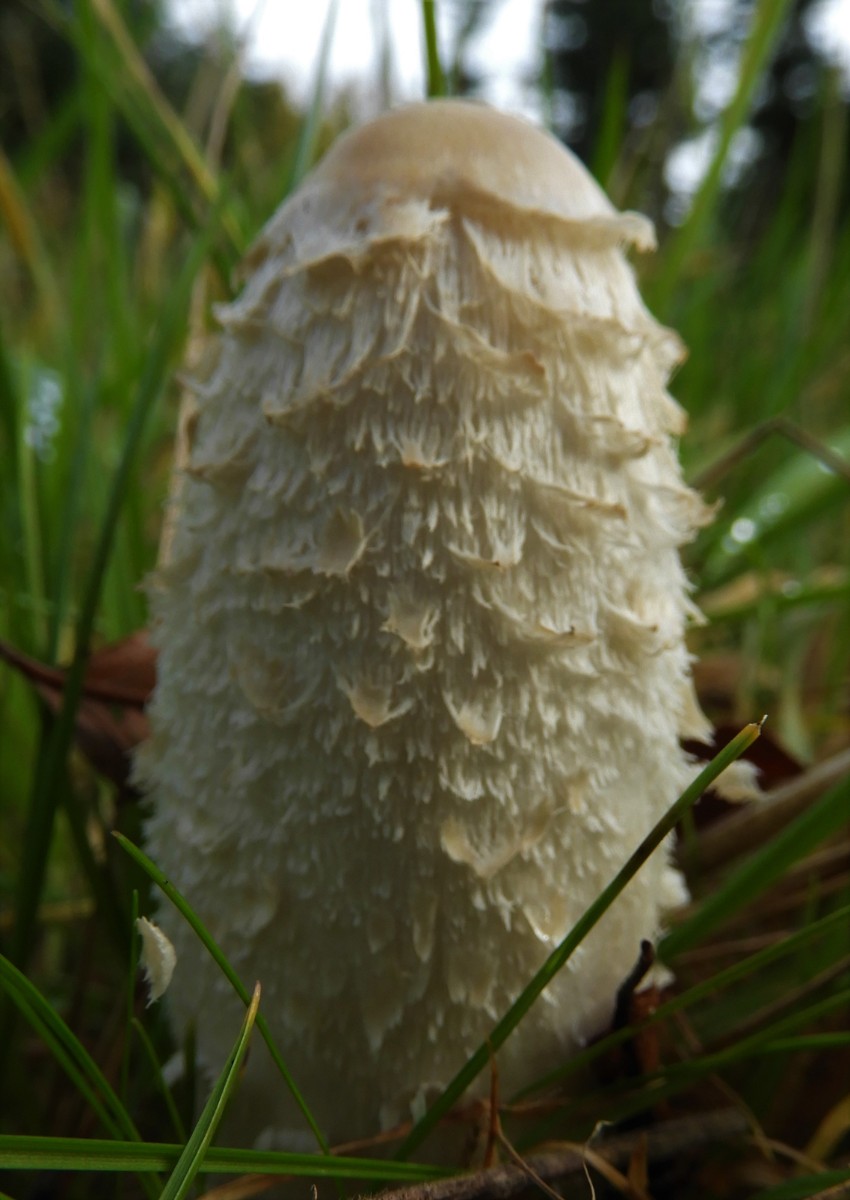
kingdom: Fungi
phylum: Basidiomycota
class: Agaricomycetes
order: Agaricales
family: Agaricaceae
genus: Coprinus
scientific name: Coprinus comatus
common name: stor parykhat
